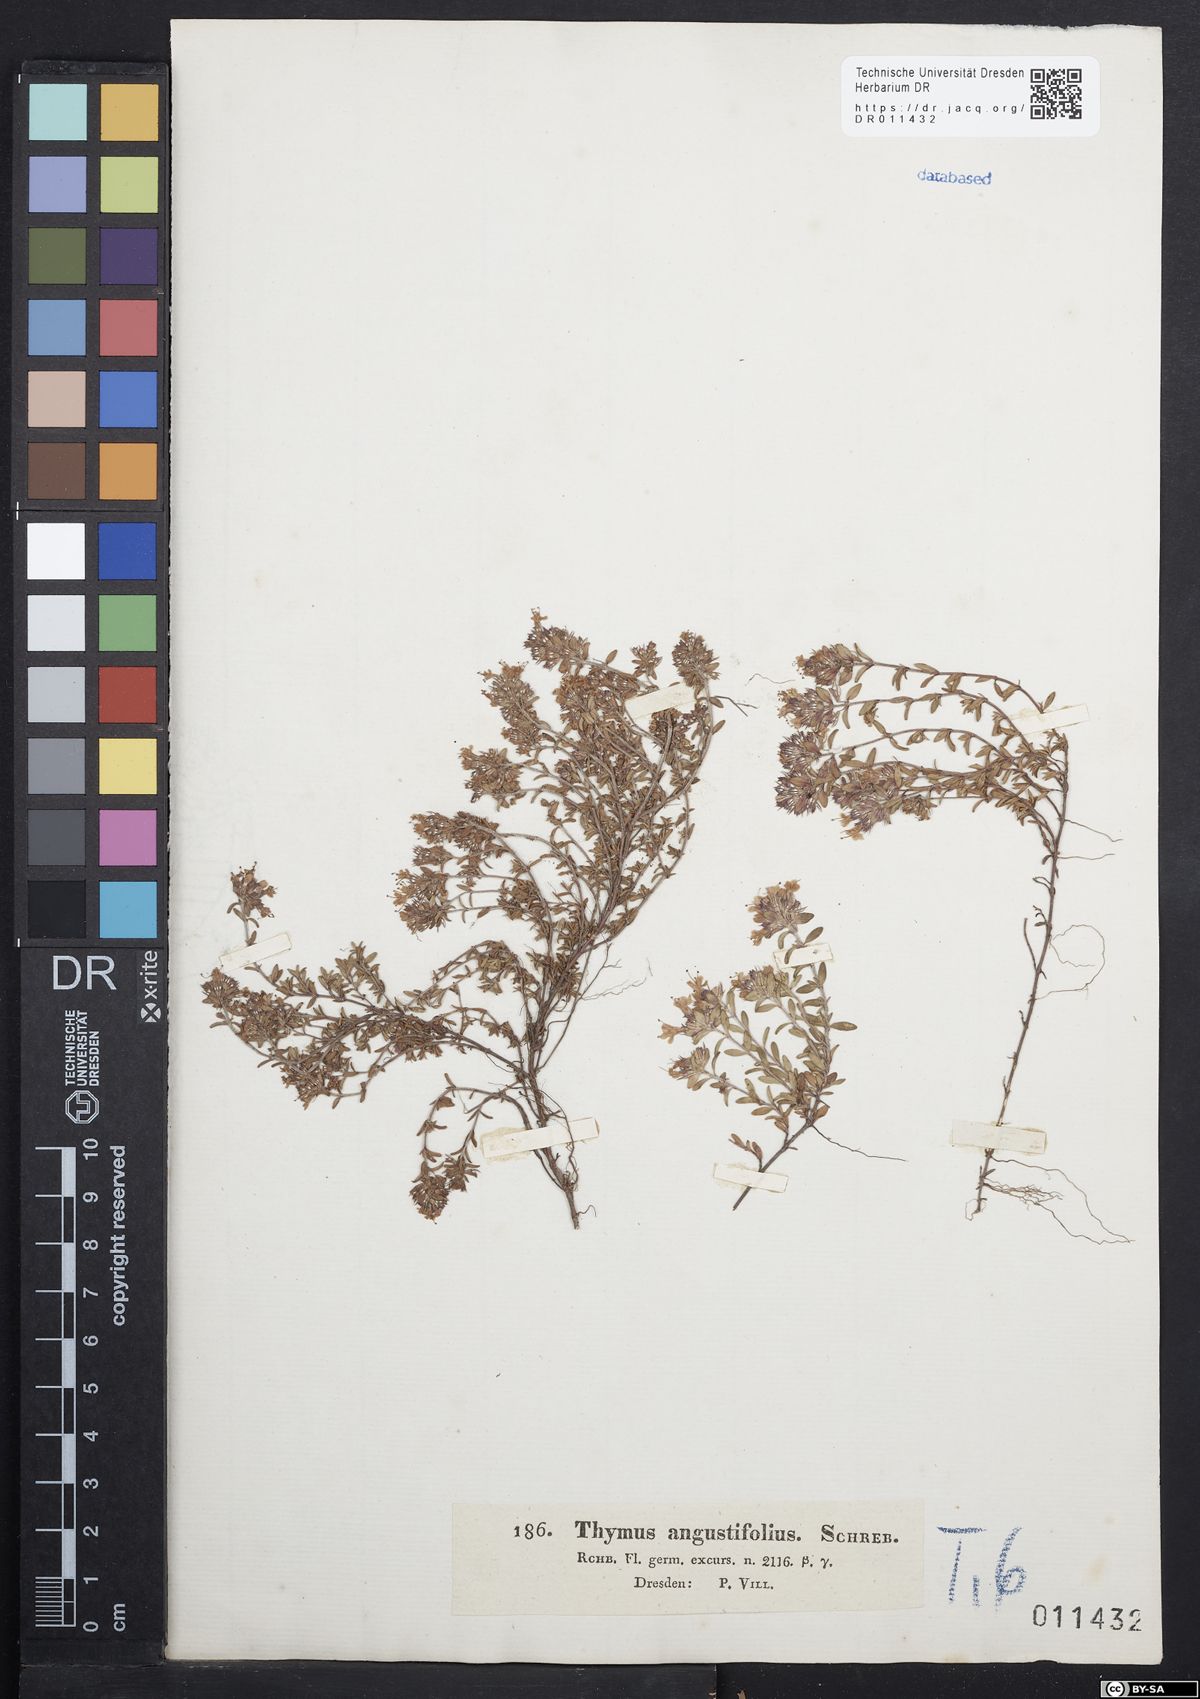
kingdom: Plantae
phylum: Tracheophyta
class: Magnoliopsida
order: Lamiales
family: Lamiaceae
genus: Thymus
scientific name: Thymus serpyllum
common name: Breckland thyme
